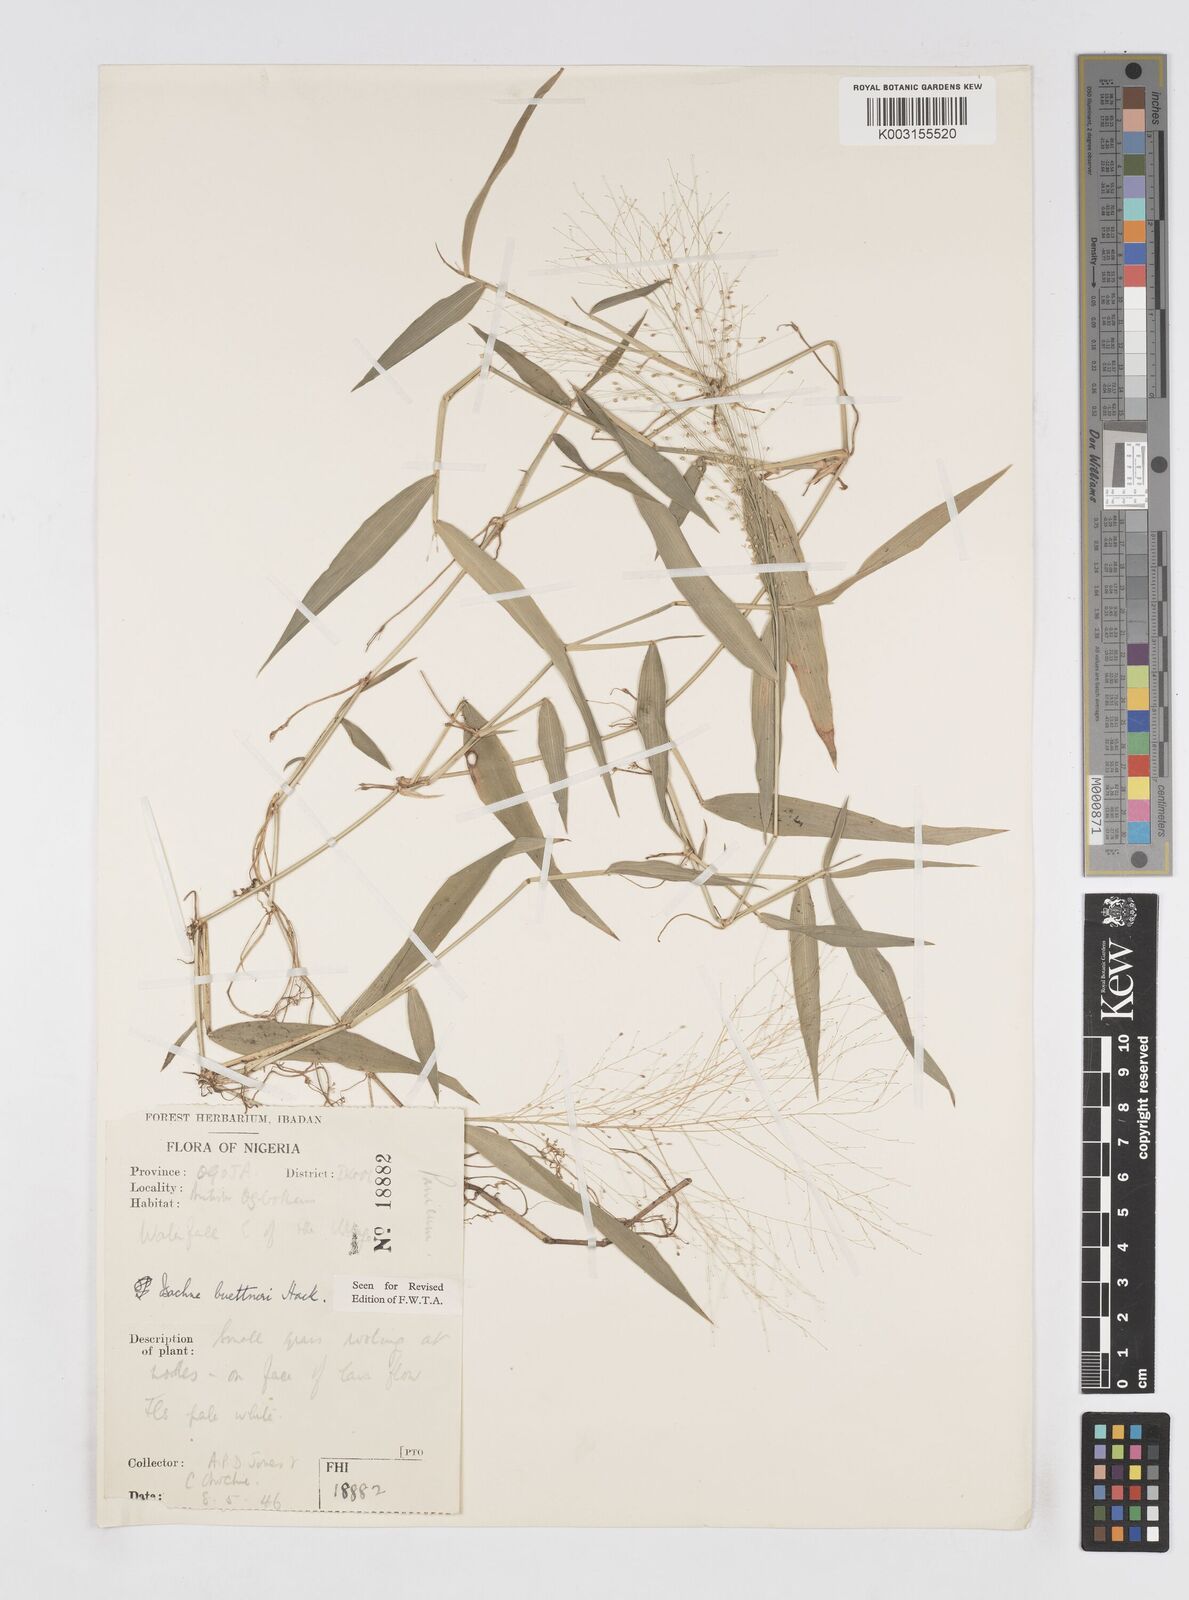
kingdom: Plantae
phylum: Tracheophyta
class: Liliopsida
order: Poales
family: Poaceae
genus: Isachne
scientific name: Isachne albens
